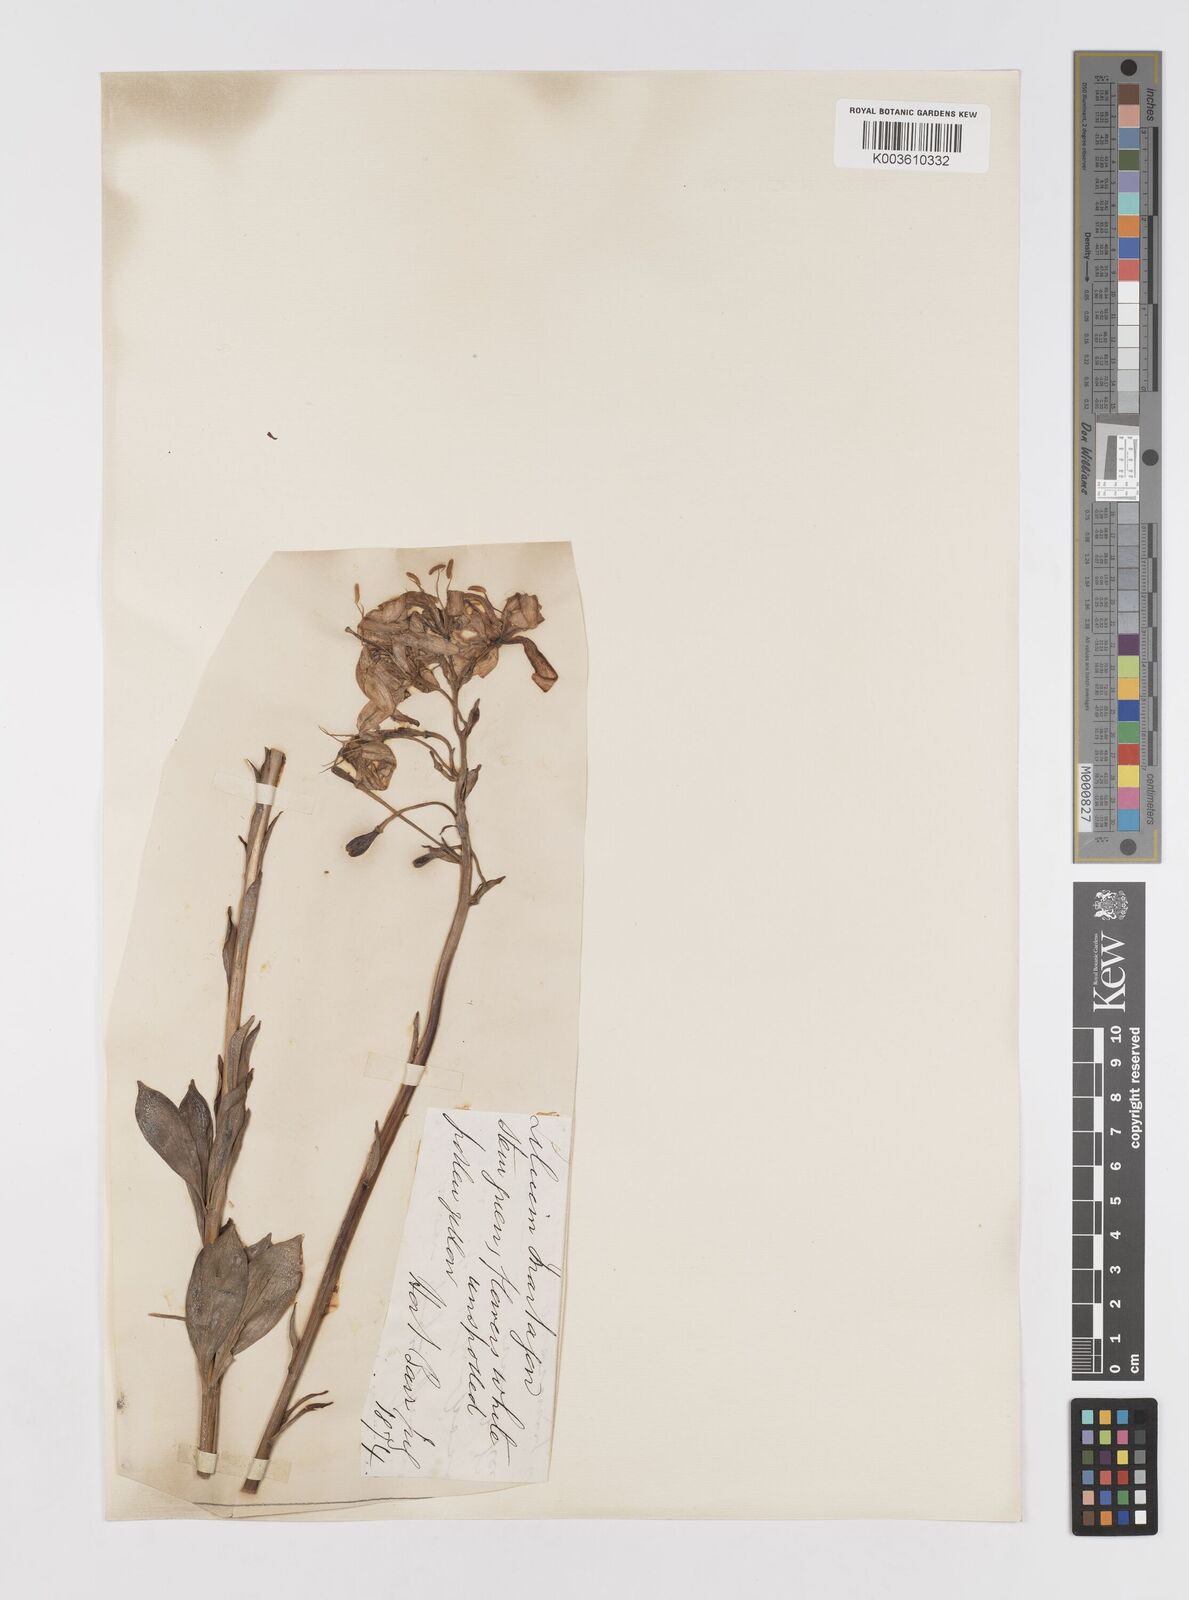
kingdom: Plantae
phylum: Tracheophyta
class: Liliopsida
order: Liliales
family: Liliaceae
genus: Lilium
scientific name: Lilium martagon
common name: Martagon lily
